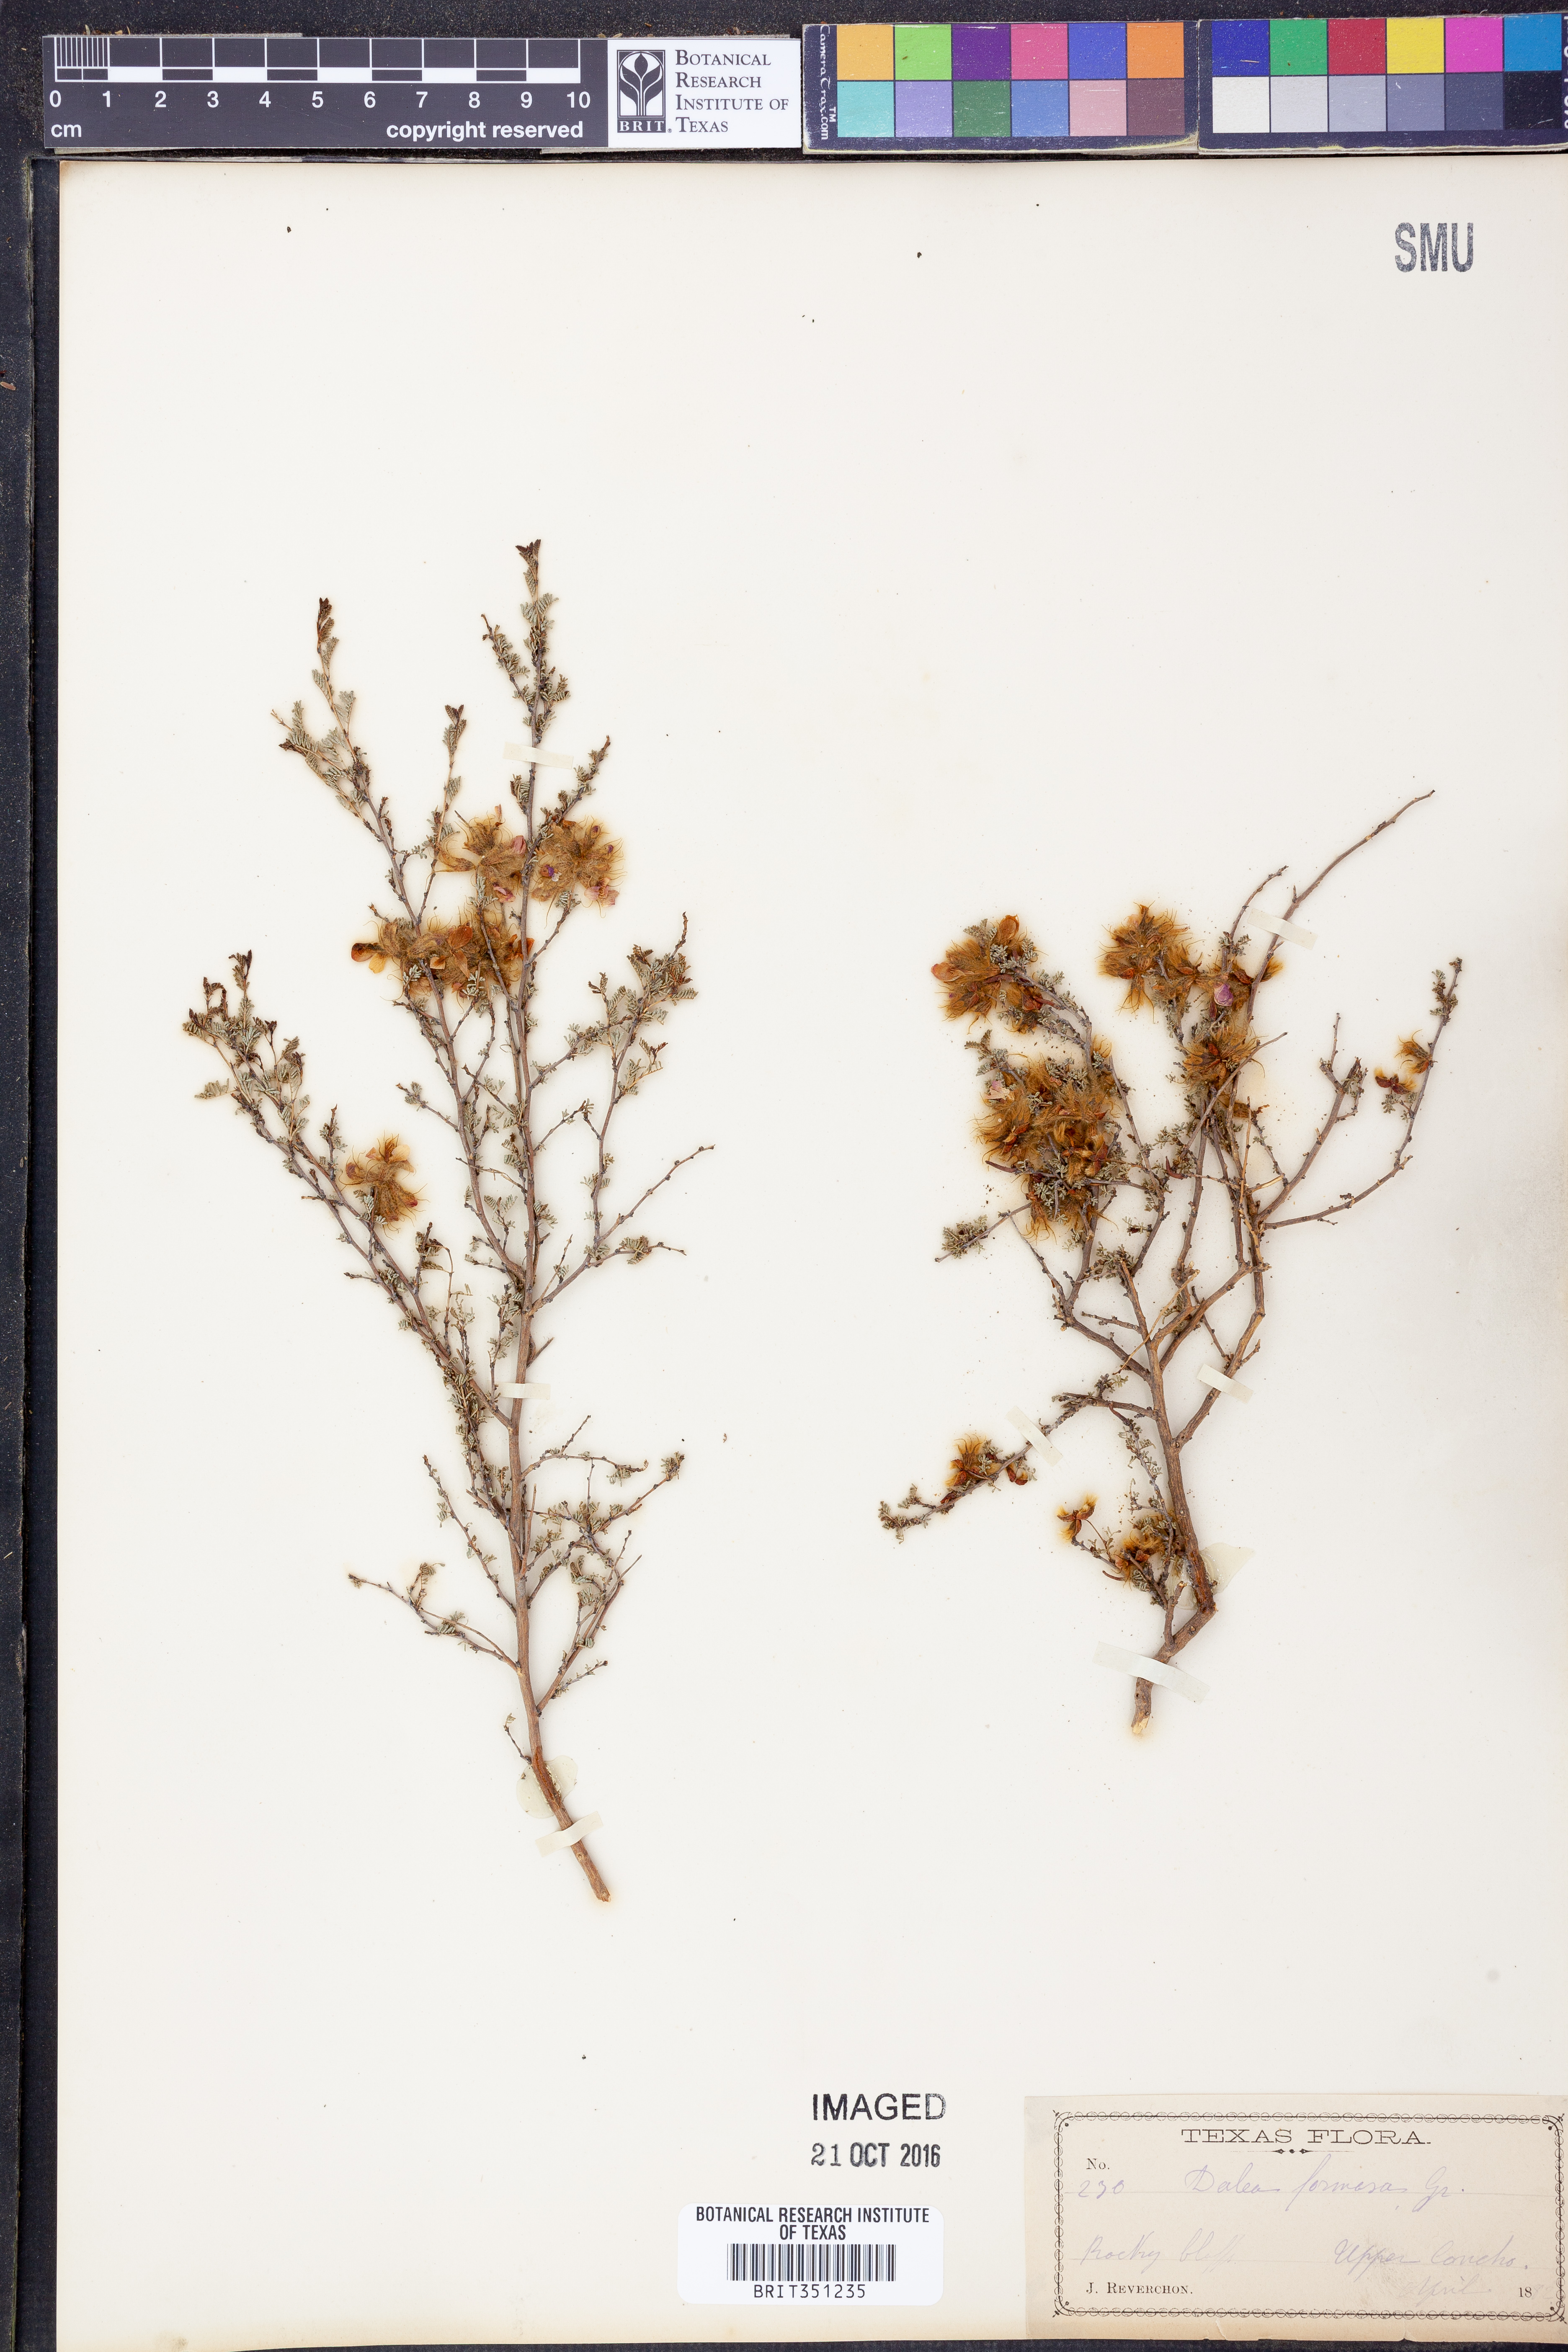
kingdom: Plantae
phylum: Tracheophyta
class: Magnoliopsida
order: Fabales
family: Fabaceae
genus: Dalea
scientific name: Dalea formosa
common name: Feather-plume dalea
